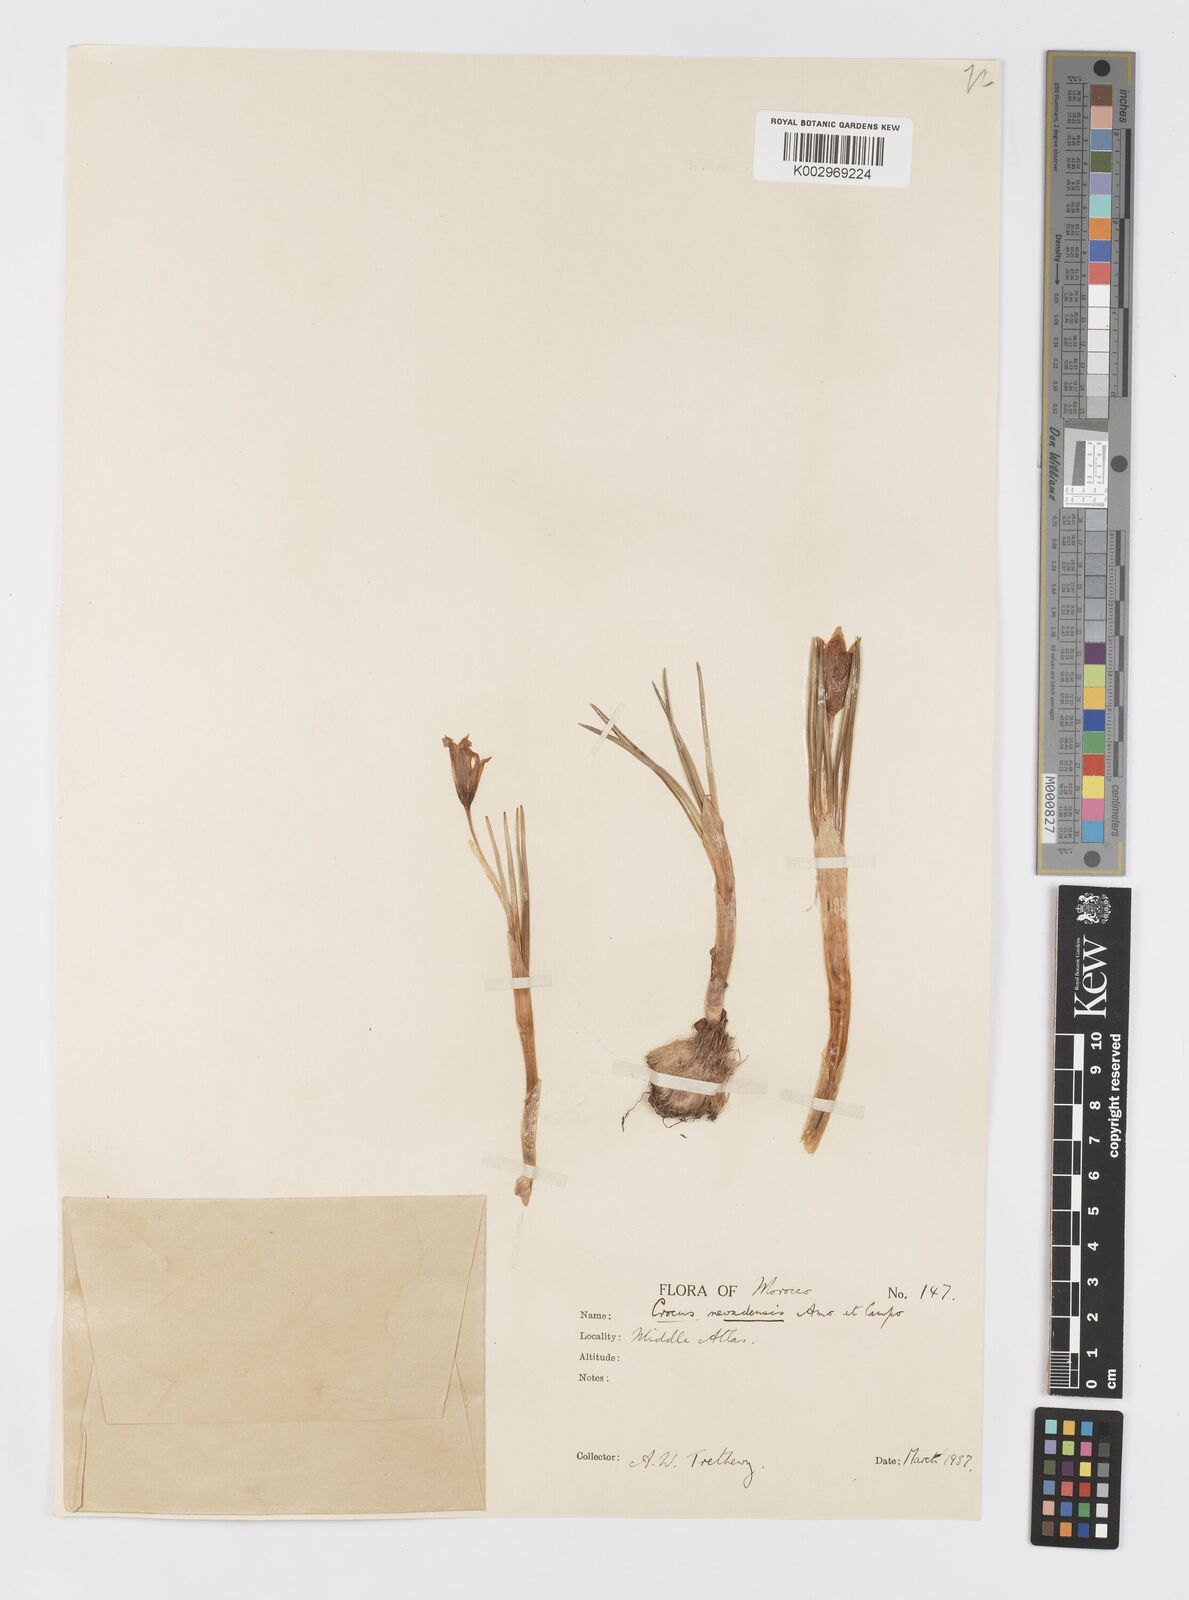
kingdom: Plantae
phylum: Tracheophyta
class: Liliopsida
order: Asparagales
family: Iridaceae
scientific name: Iridaceae
